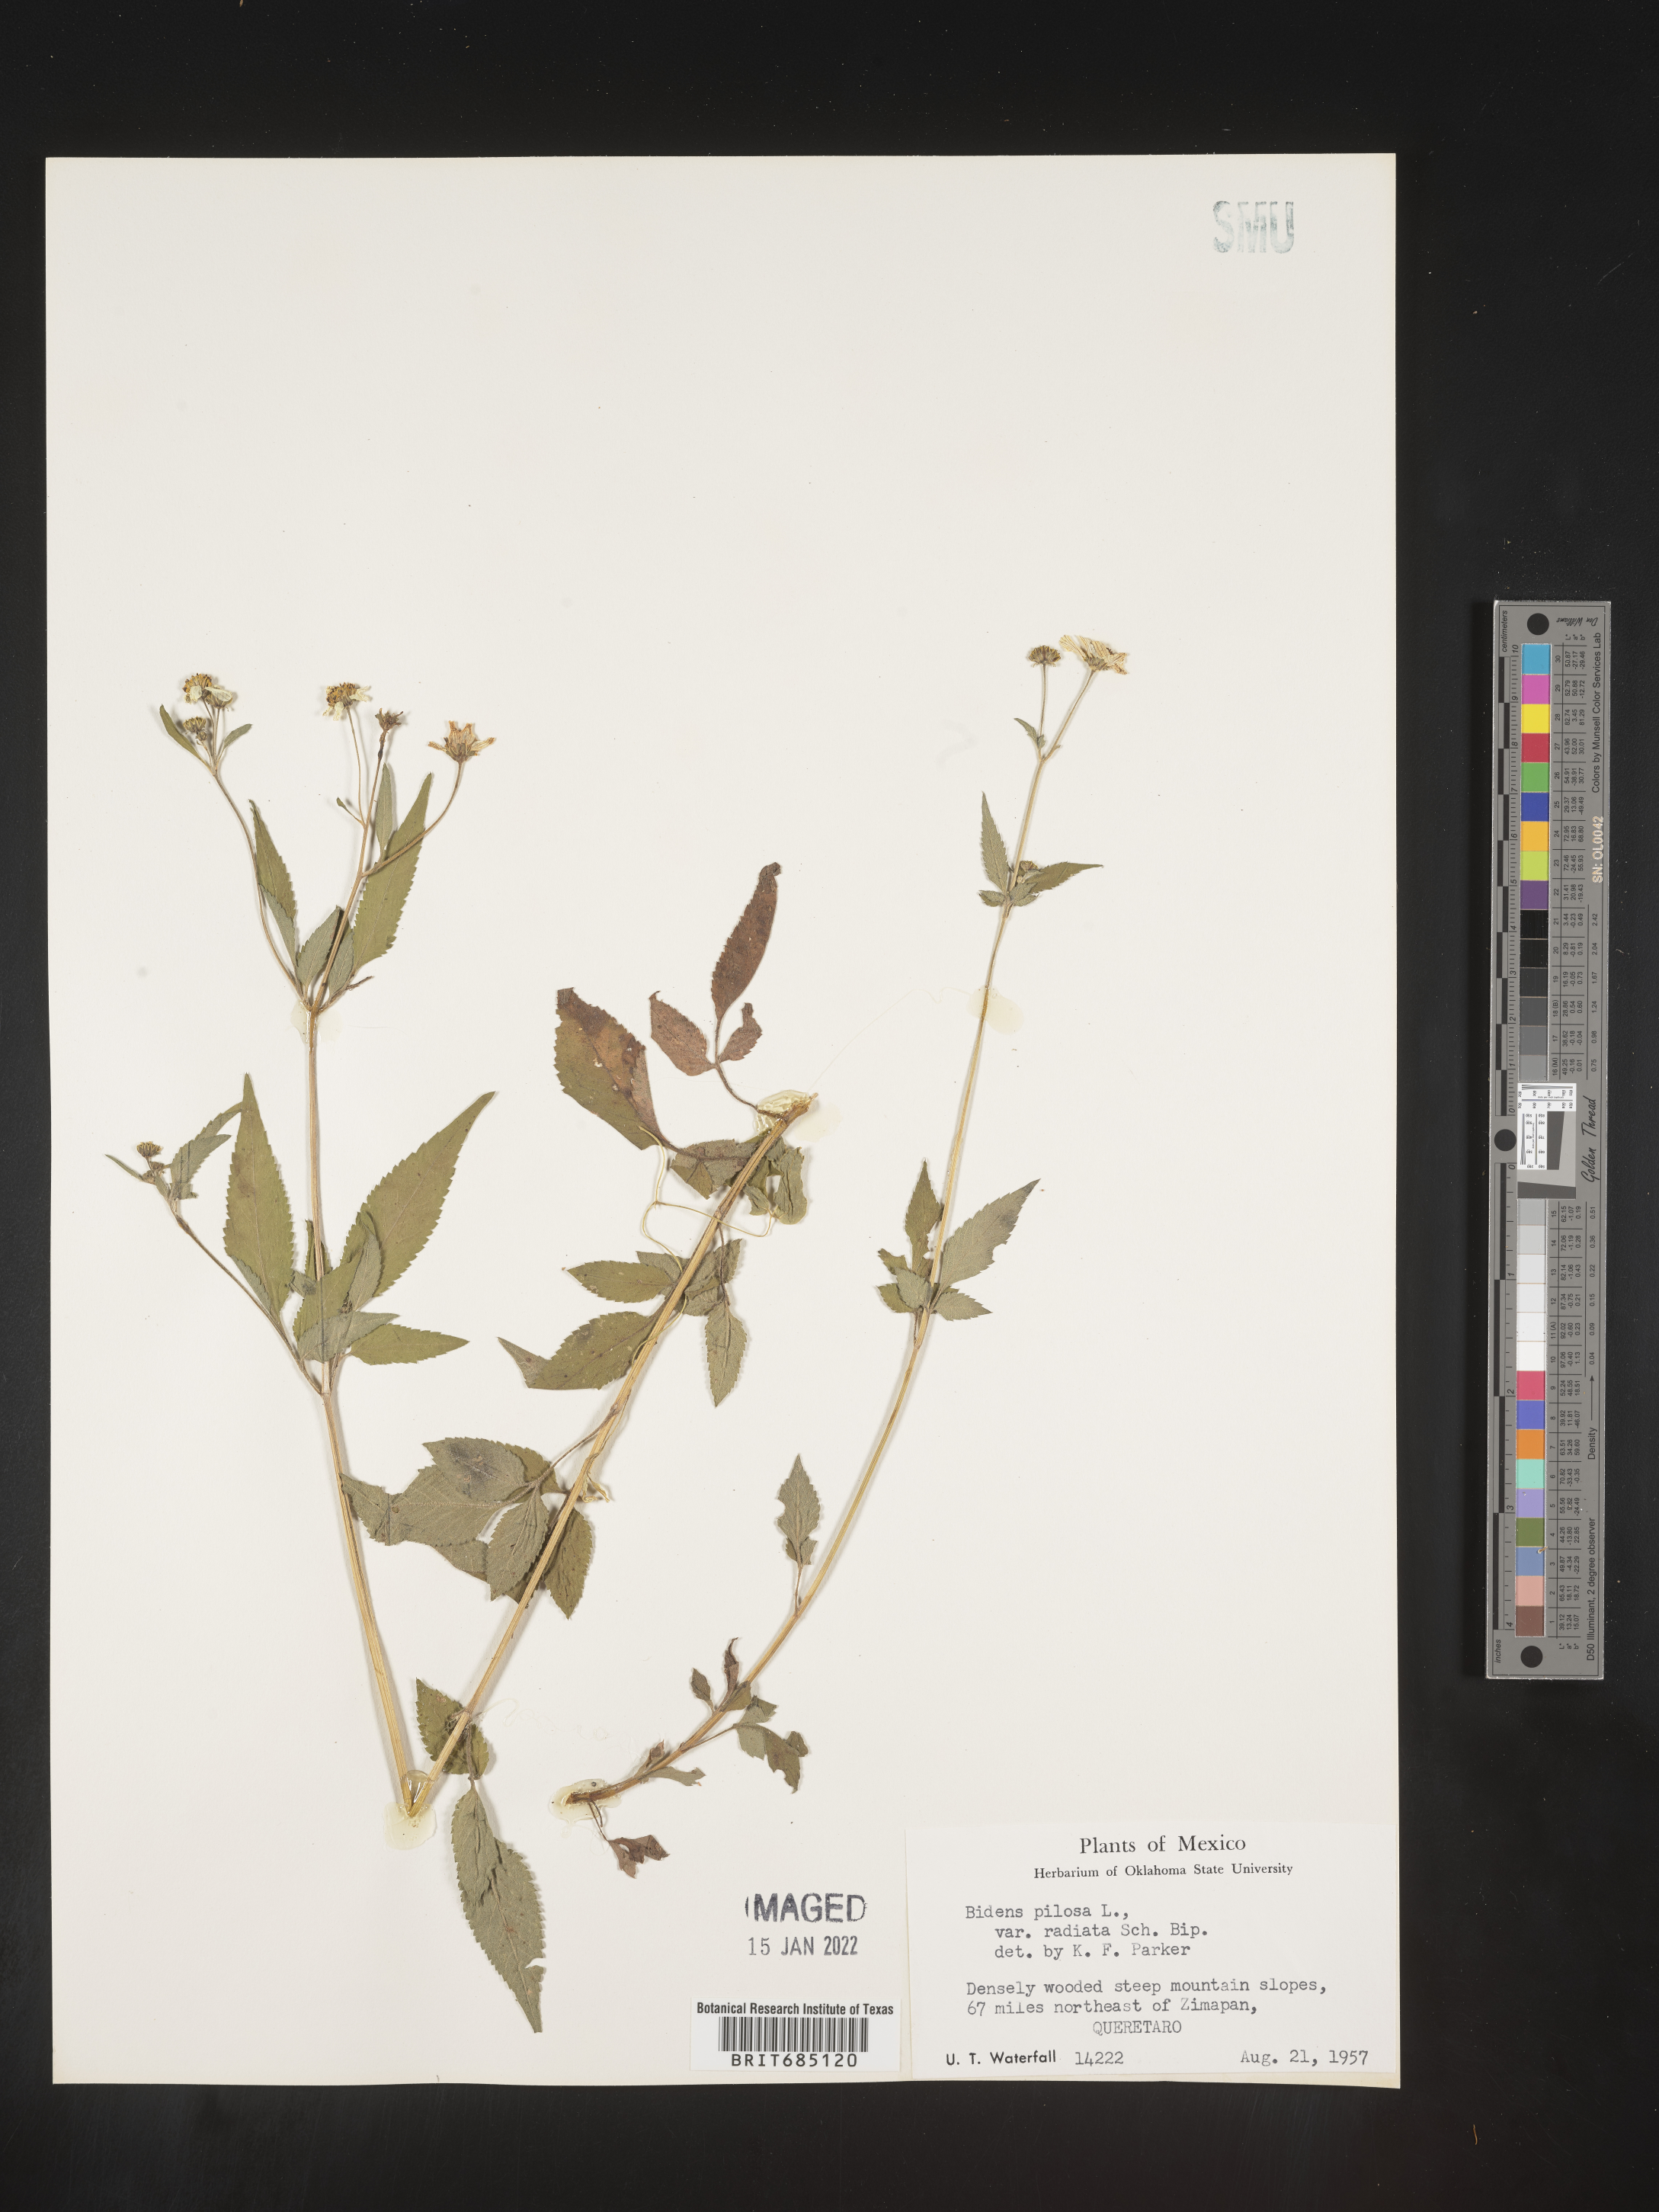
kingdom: Plantae
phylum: Tracheophyta
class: Magnoliopsida
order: Asterales
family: Asteraceae
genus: Bidens
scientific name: Bidens
